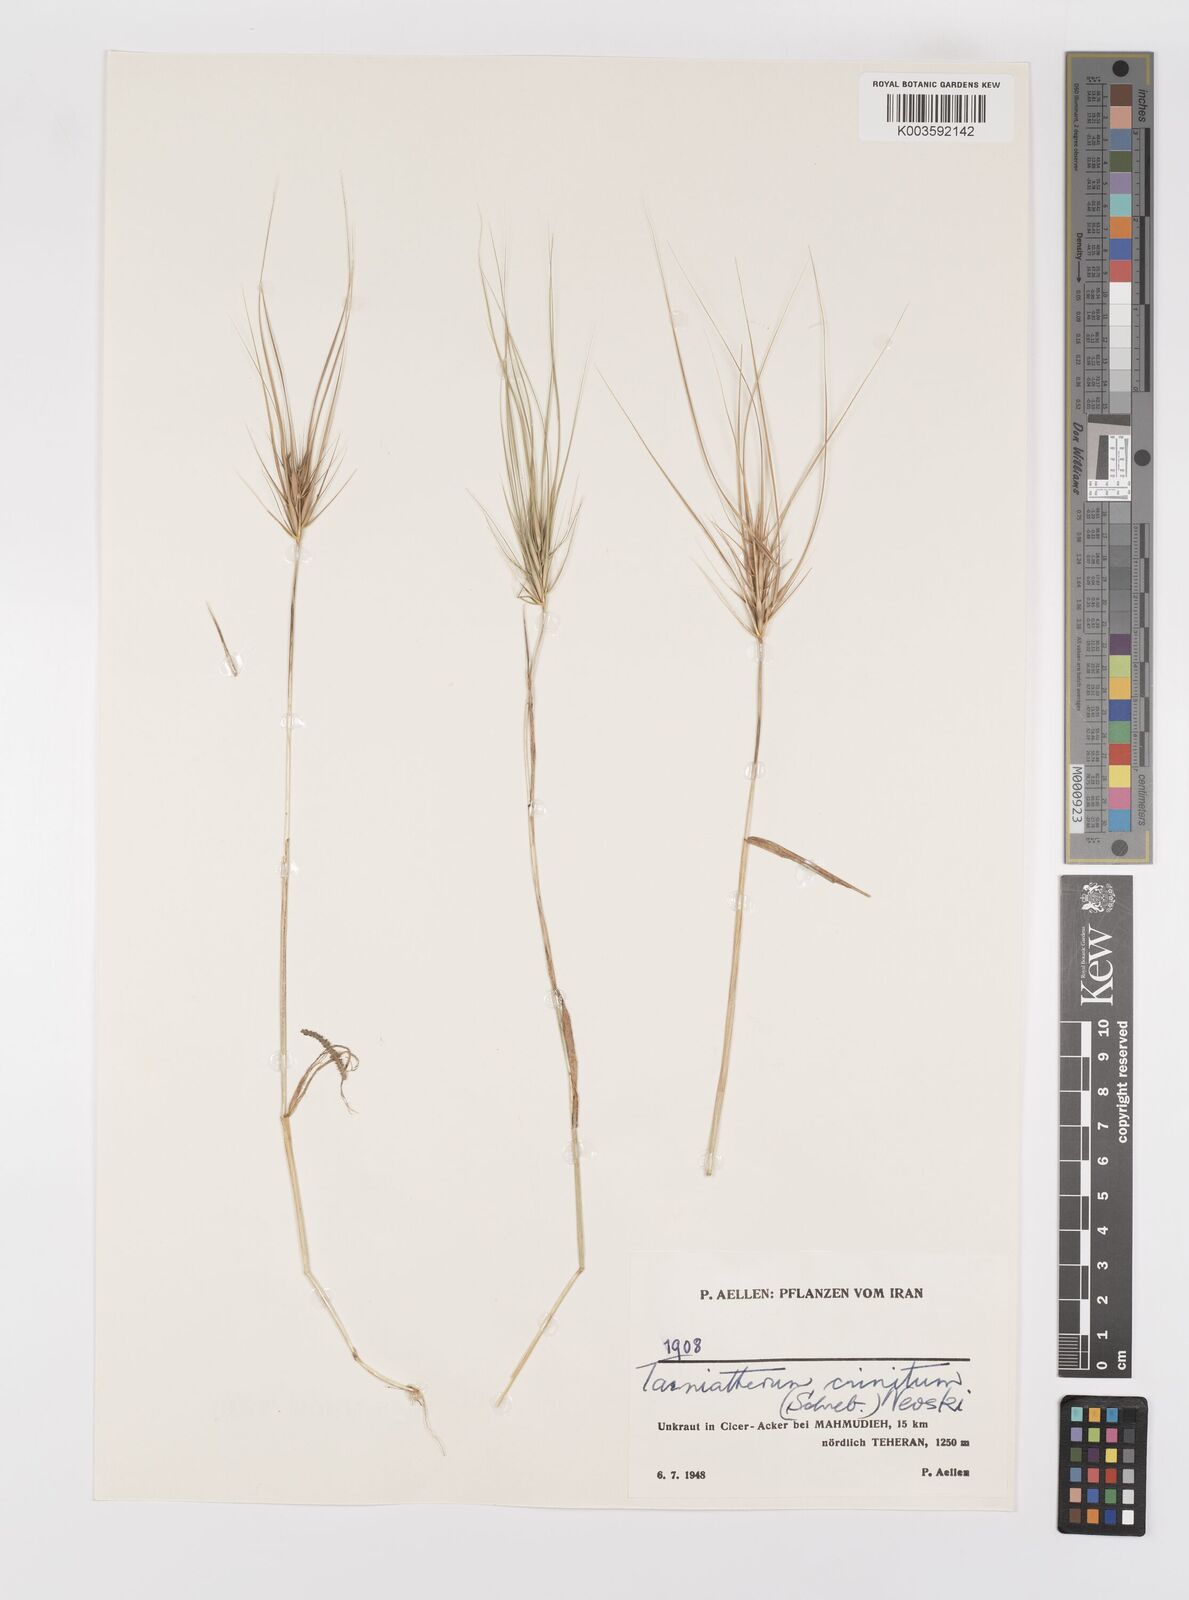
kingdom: Plantae
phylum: Tracheophyta
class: Liliopsida
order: Poales
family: Poaceae
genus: Taeniatherum
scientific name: Taeniatherum caput-medusae
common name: Medusahead
